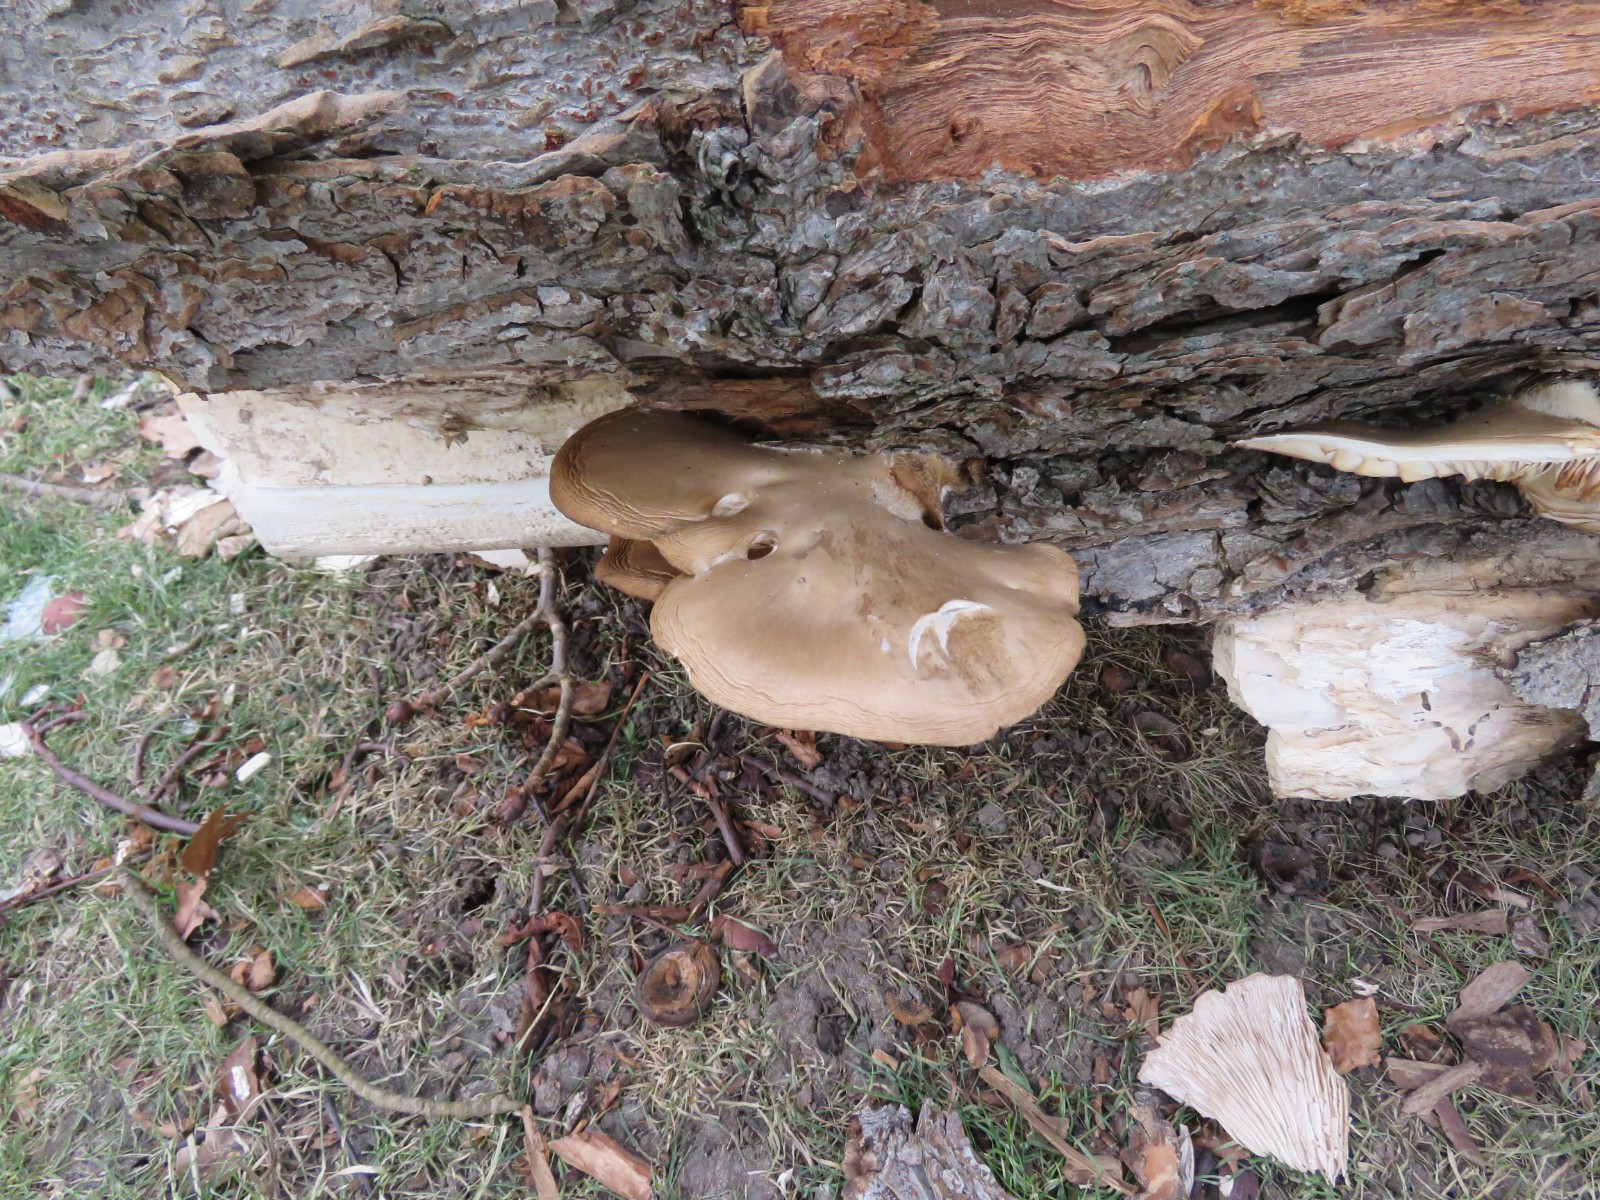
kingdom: Fungi
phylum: Basidiomycota
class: Agaricomycetes
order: Agaricales
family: Pleurotaceae
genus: Pleurotus
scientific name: Pleurotus ostreatus
